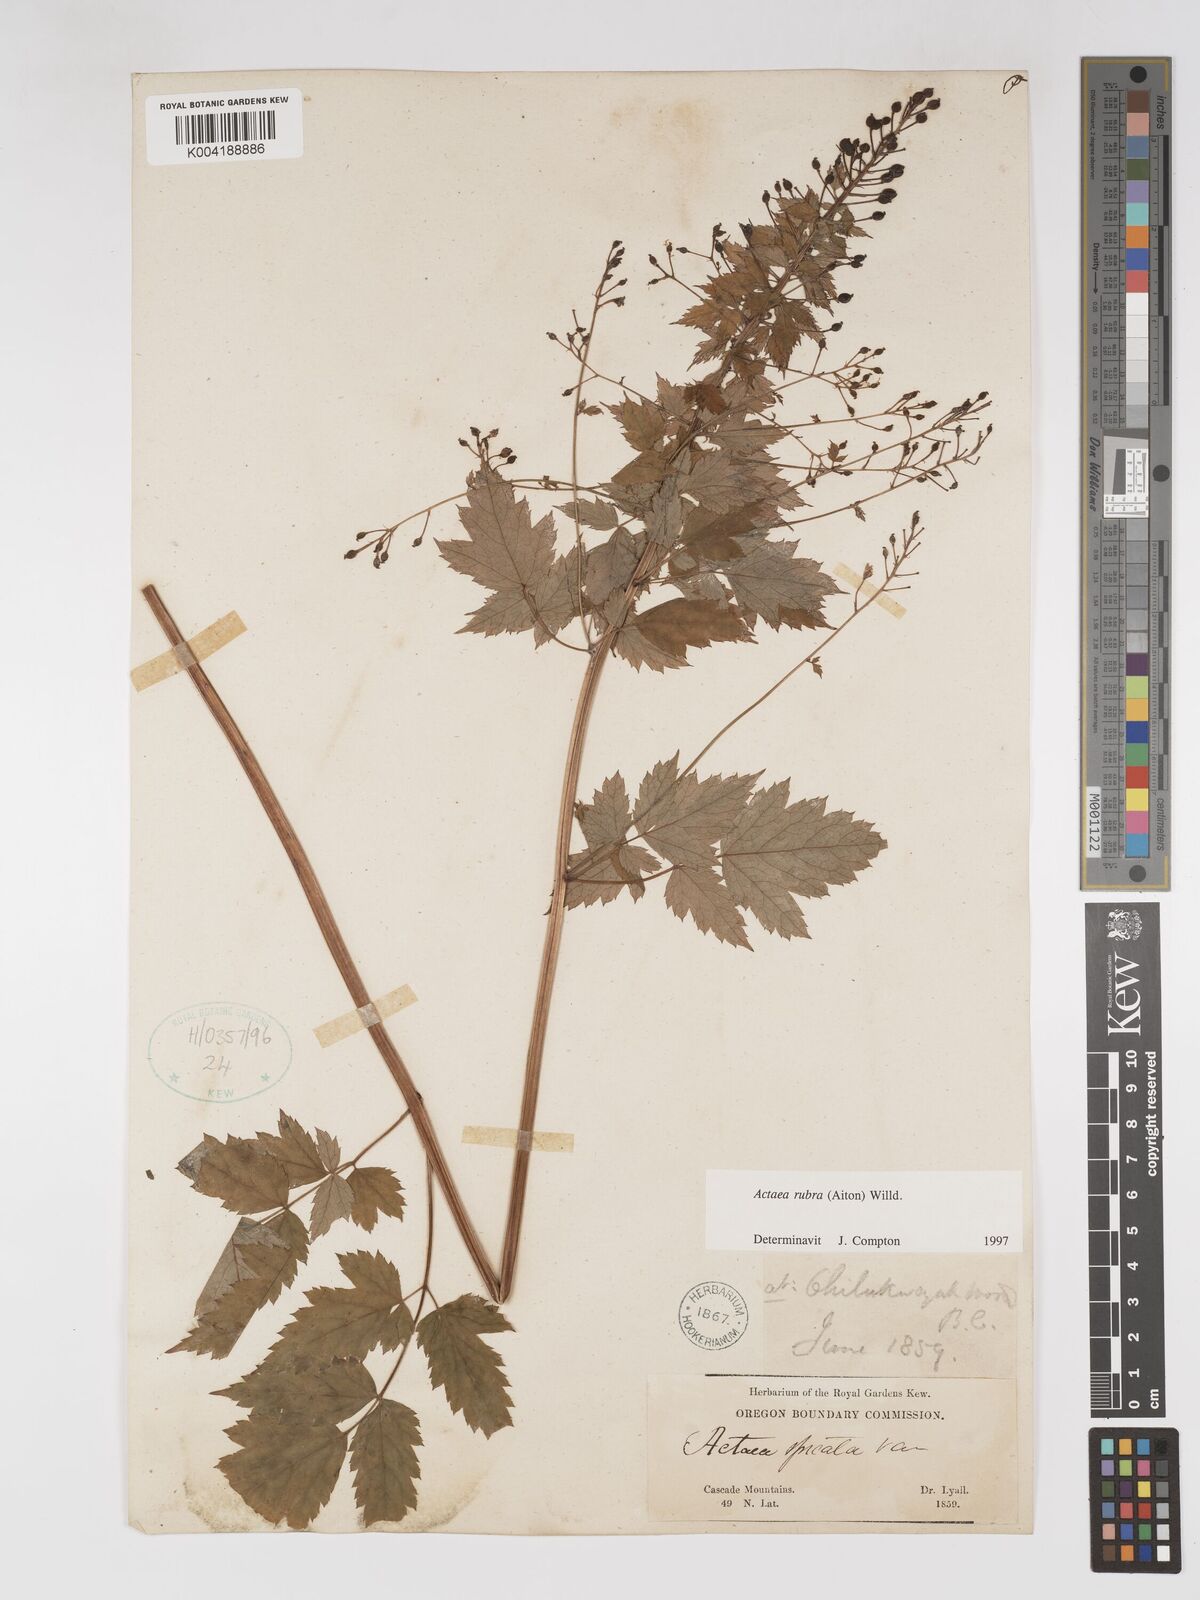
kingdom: Plantae
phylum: Tracheophyta
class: Magnoliopsida
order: Ranunculales
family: Ranunculaceae
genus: Actaea
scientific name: Actaea spicata
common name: Baneberry
